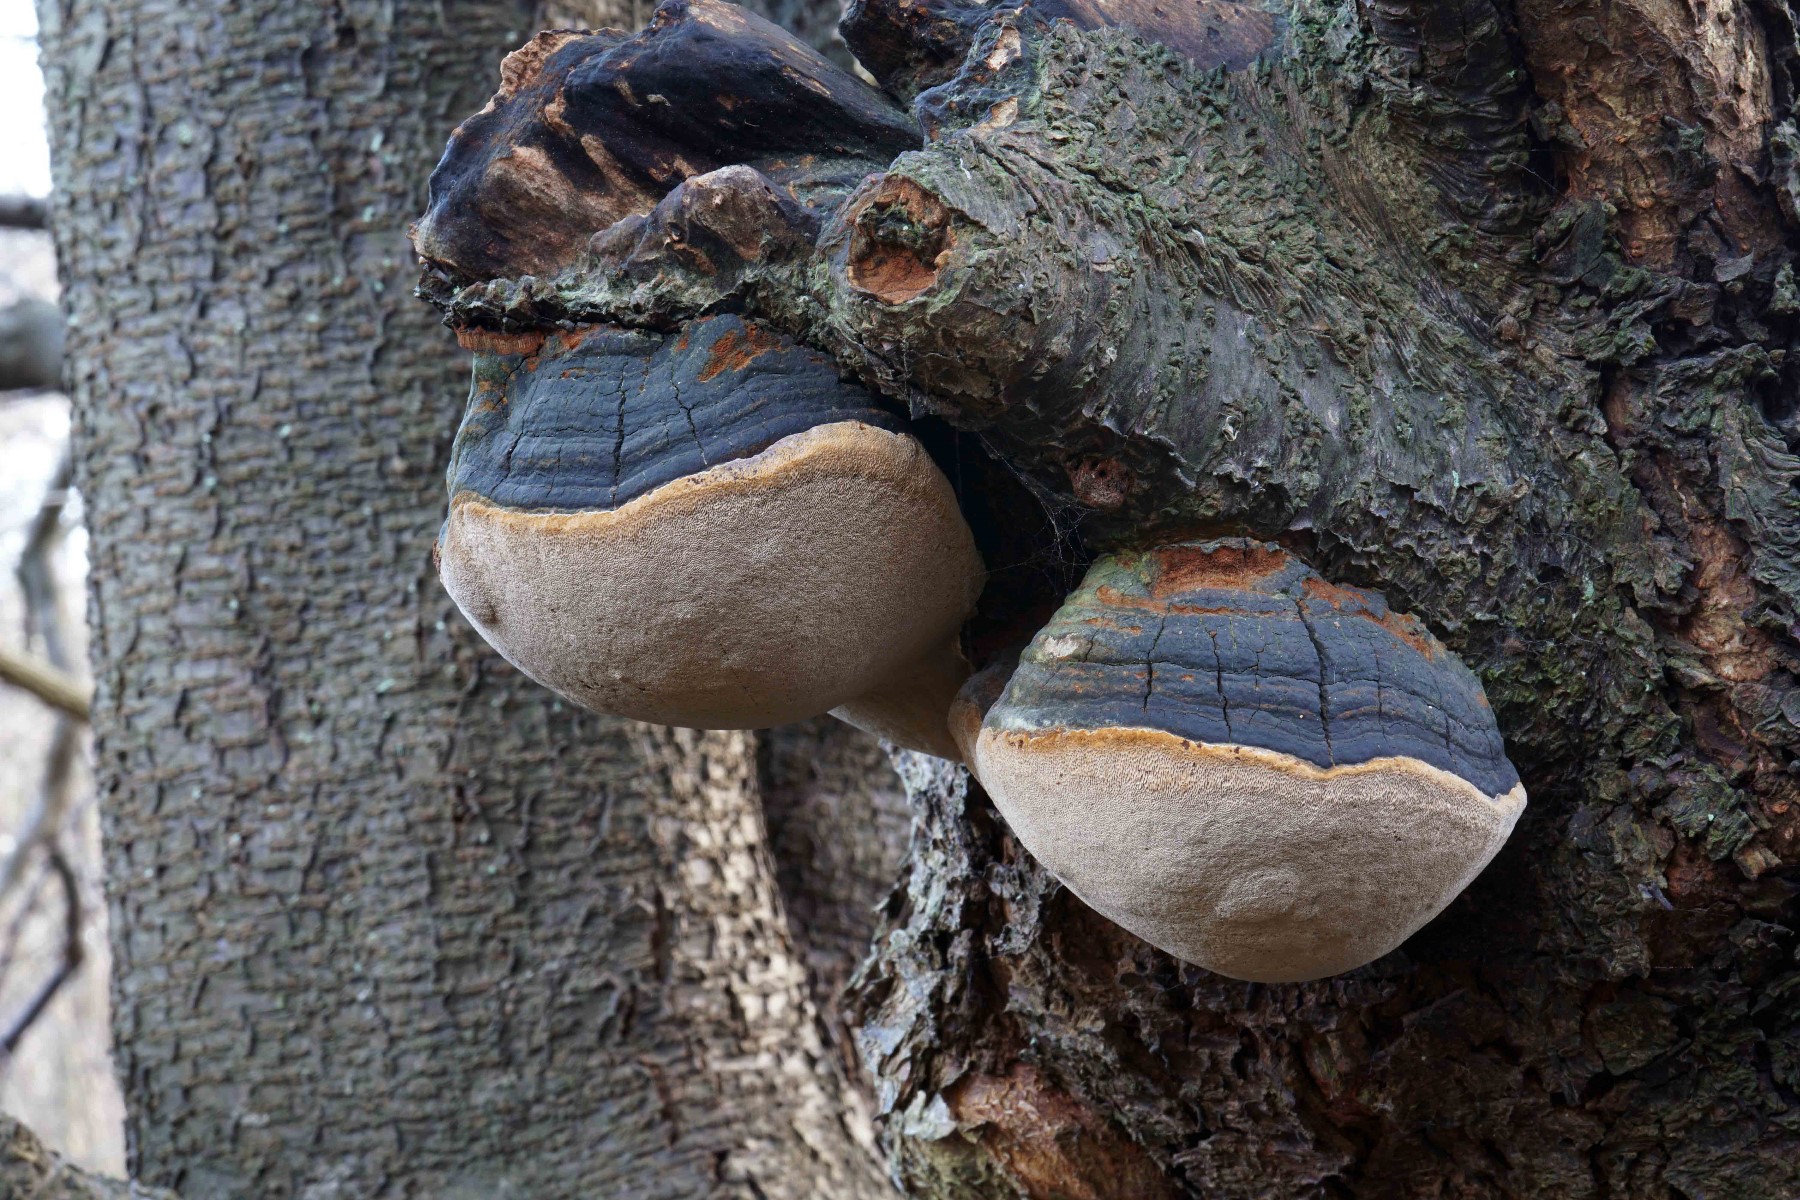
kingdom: Fungi
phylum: Basidiomycota
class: Agaricomycetes
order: Hymenochaetales
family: Hymenochaetaceae
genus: Phellinus
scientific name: Phellinus pomaceus
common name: blomme-ildporesvamp
